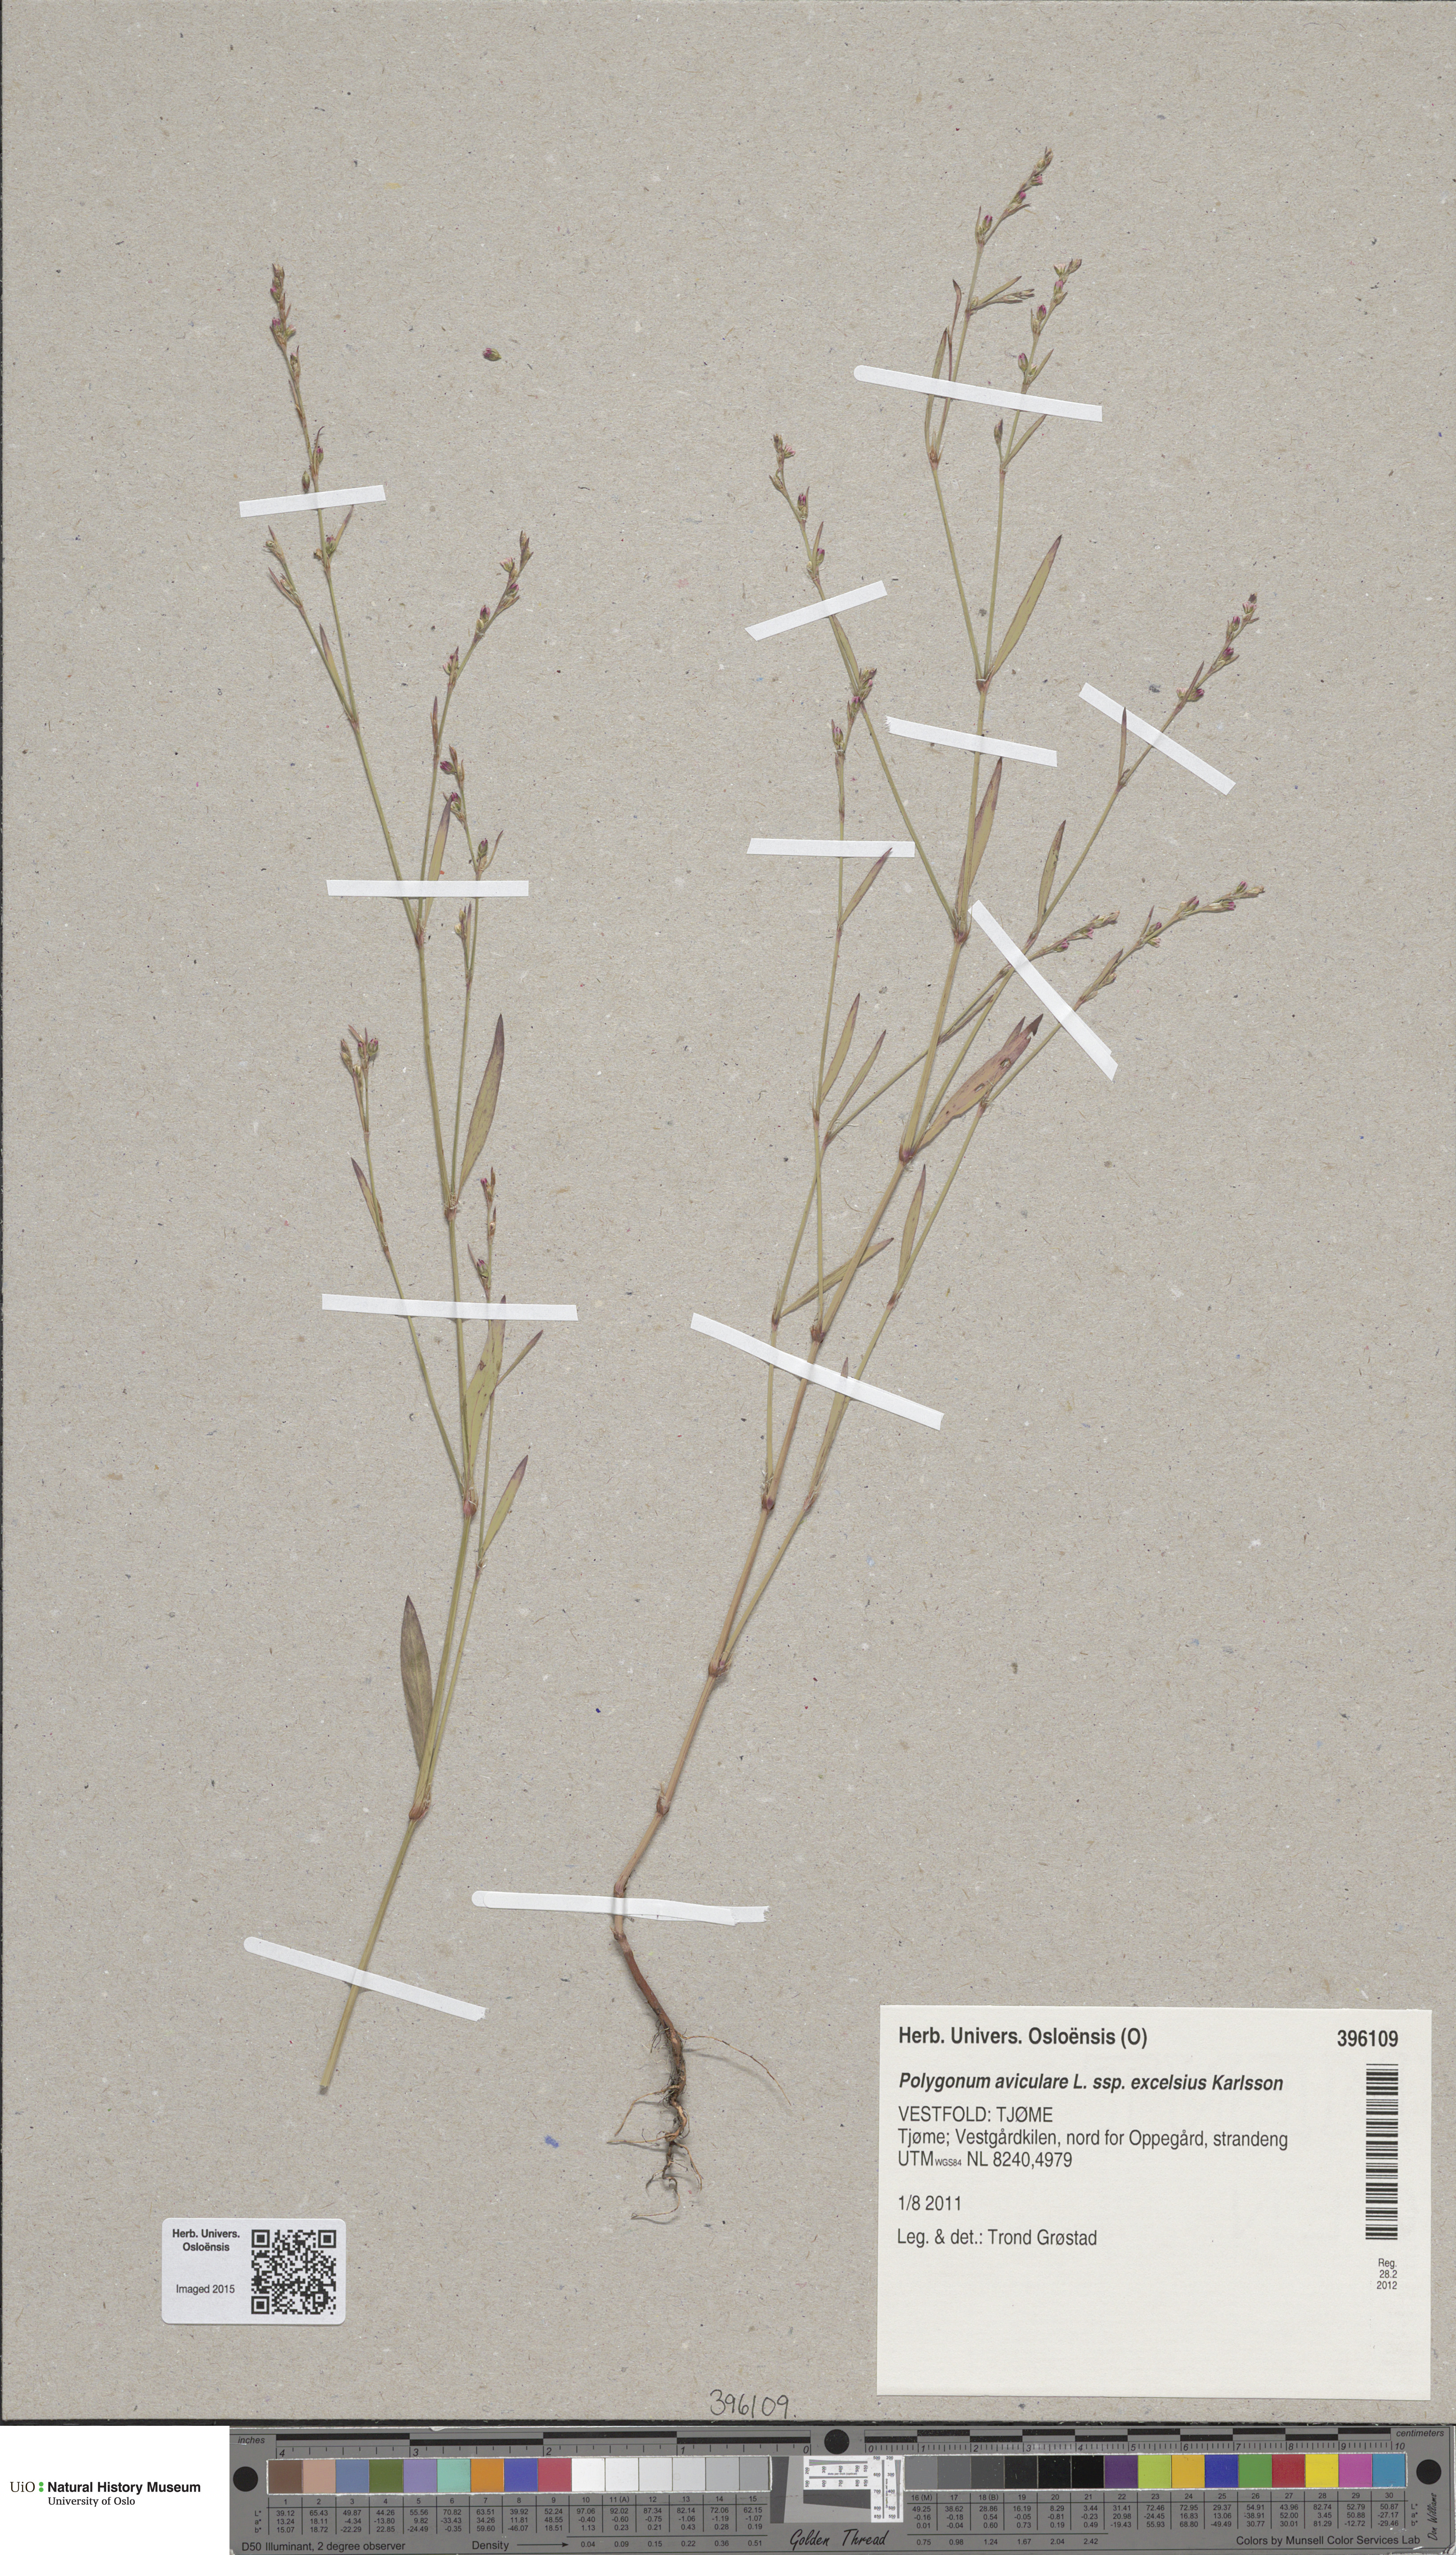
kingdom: Plantae
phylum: Tracheophyta
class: Magnoliopsida
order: Caryophyllales
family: Polygonaceae
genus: Polygonum
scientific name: Polygonum excelsius
